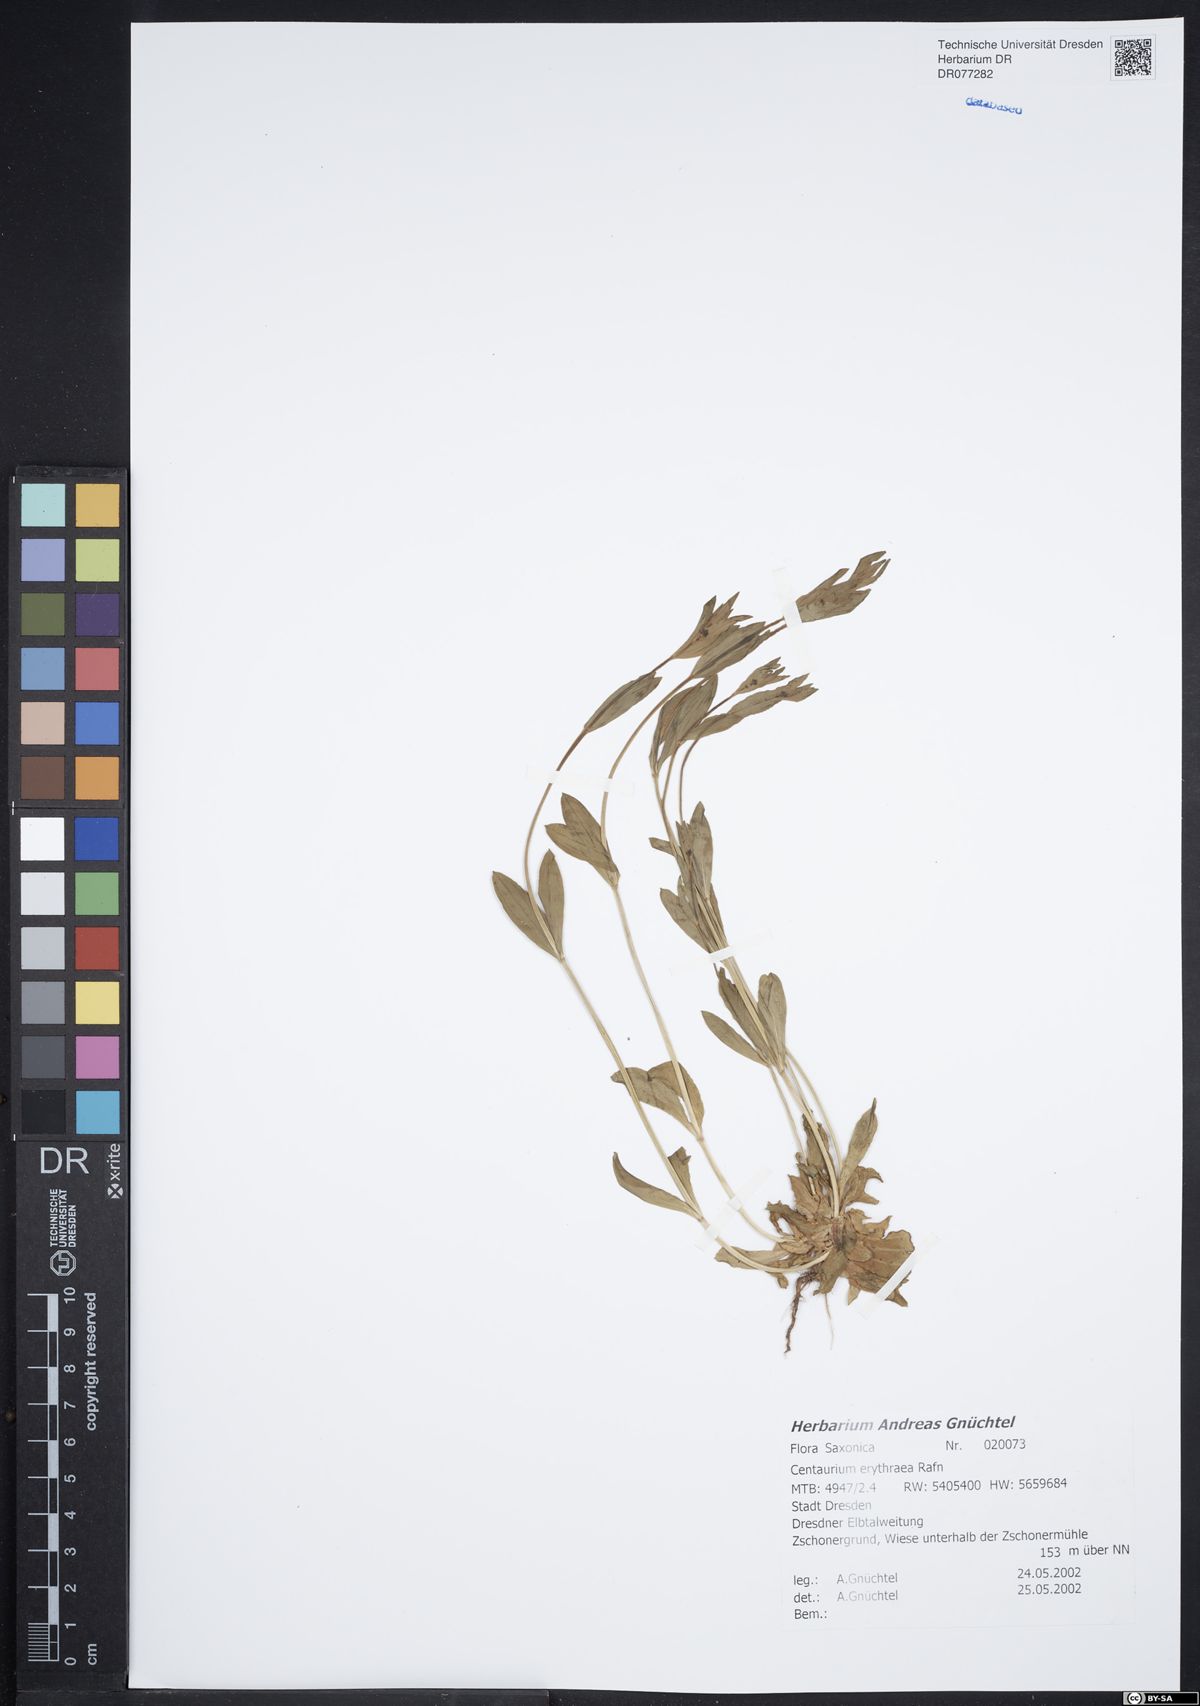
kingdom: Plantae
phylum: Tracheophyta
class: Magnoliopsida
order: Gentianales
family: Gentianaceae
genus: Centaurium
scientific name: Centaurium erythraea
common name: Common centaury
